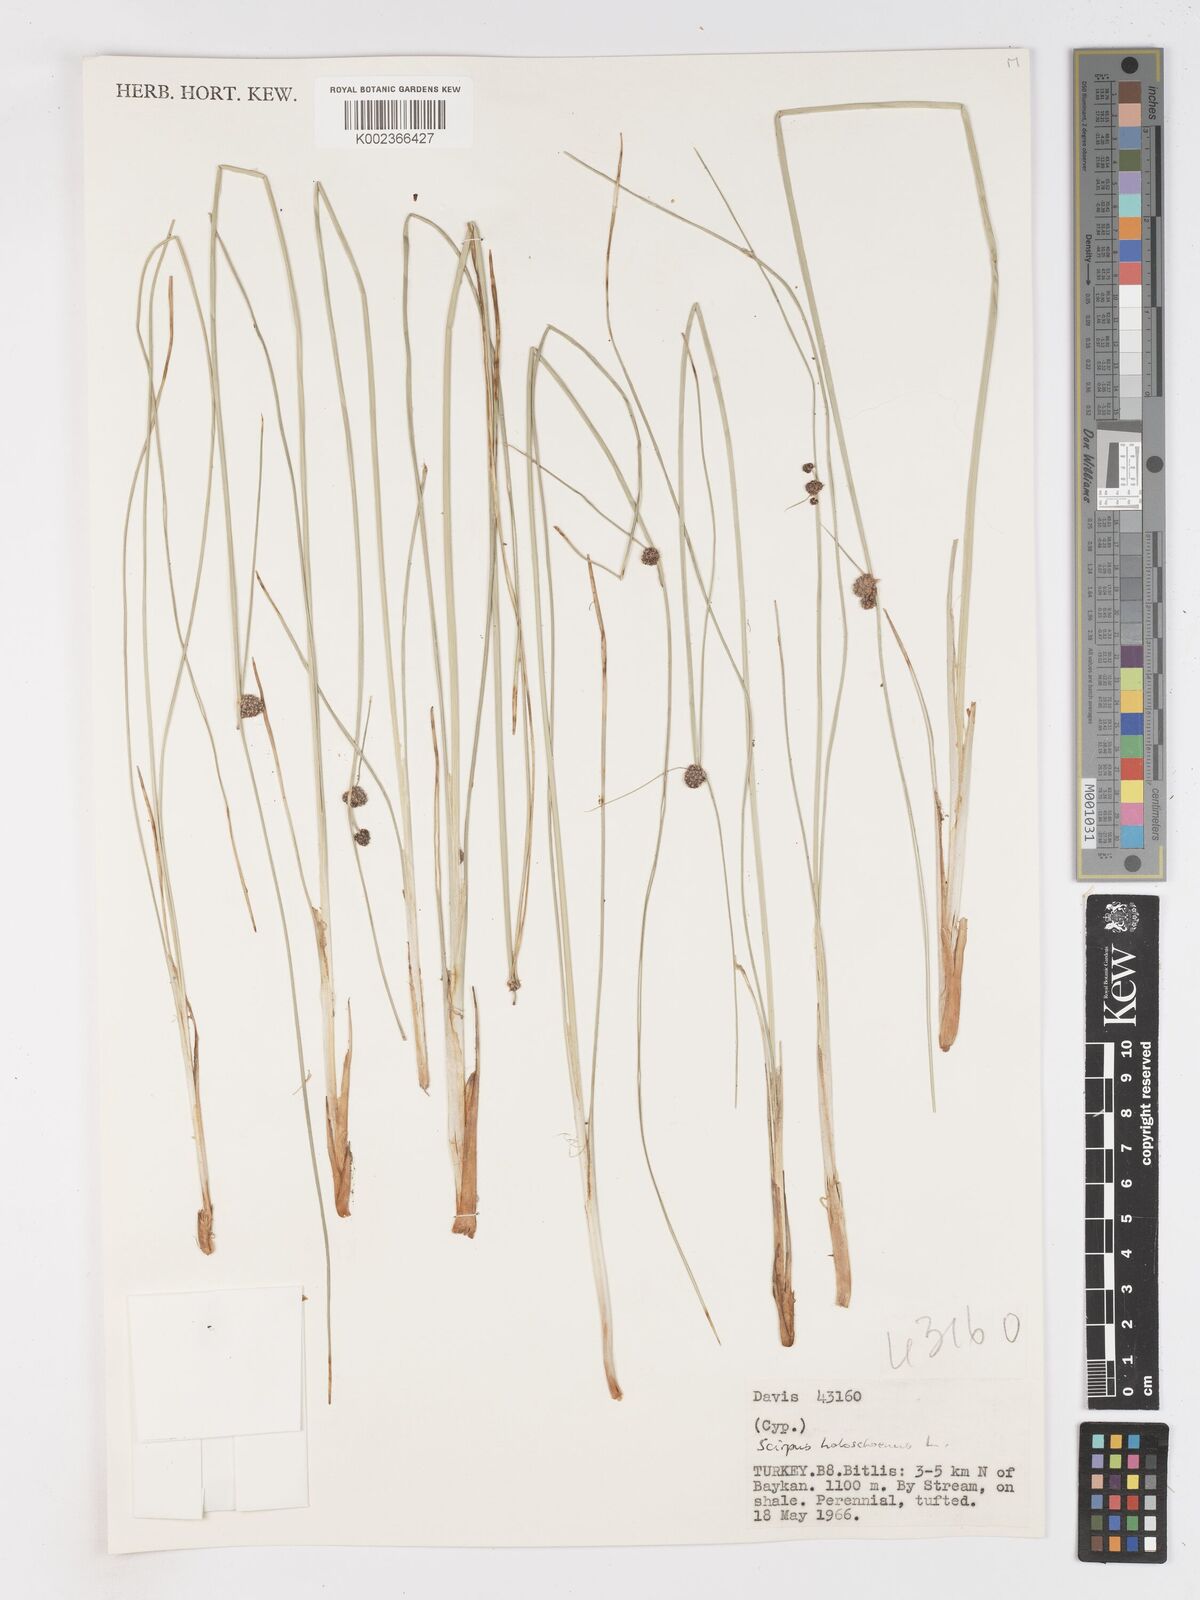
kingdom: Plantae
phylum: Tracheophyta
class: Liliopsida
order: Poales
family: Cyperaceae
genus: Scirpoides
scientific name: Scirpoides holoschoenus
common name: Round-headed club-rush
